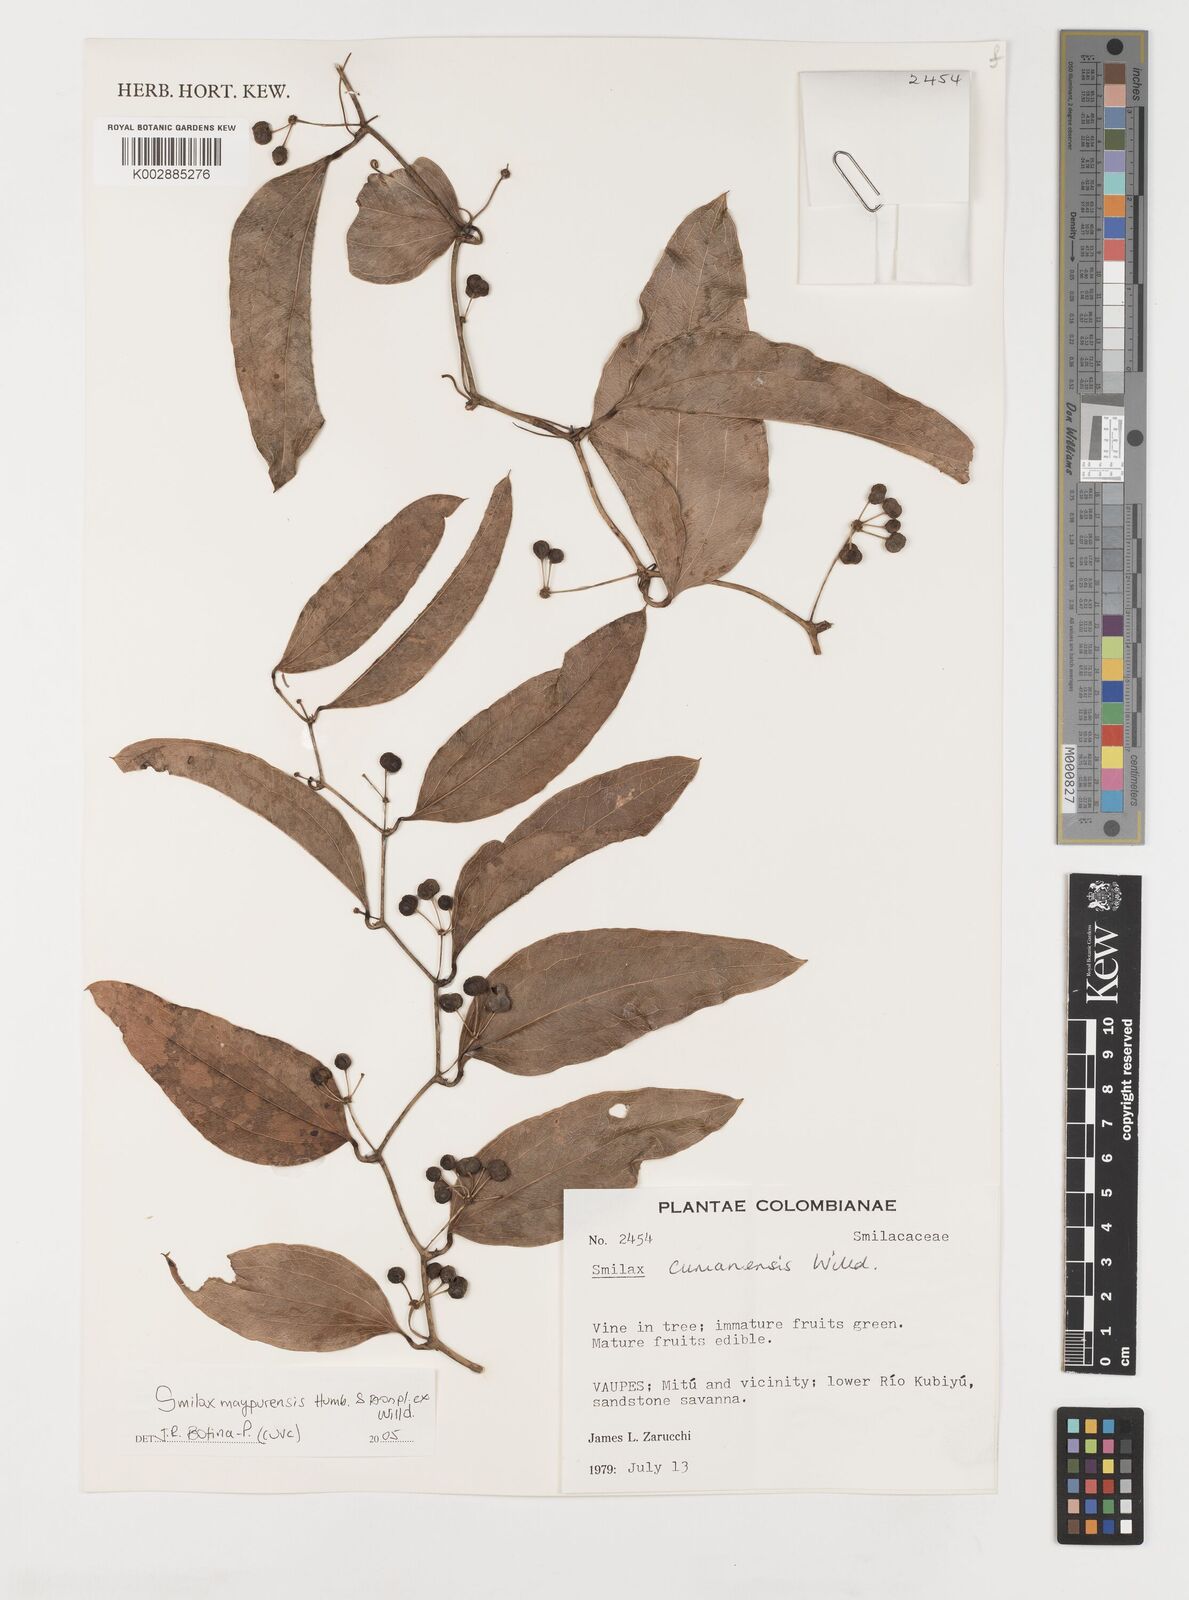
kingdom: Plantae
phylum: Tracheophyta
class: Liliopsida
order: Liliales
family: Smilacaceae
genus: Smilax
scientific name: Smilax maypurensis
